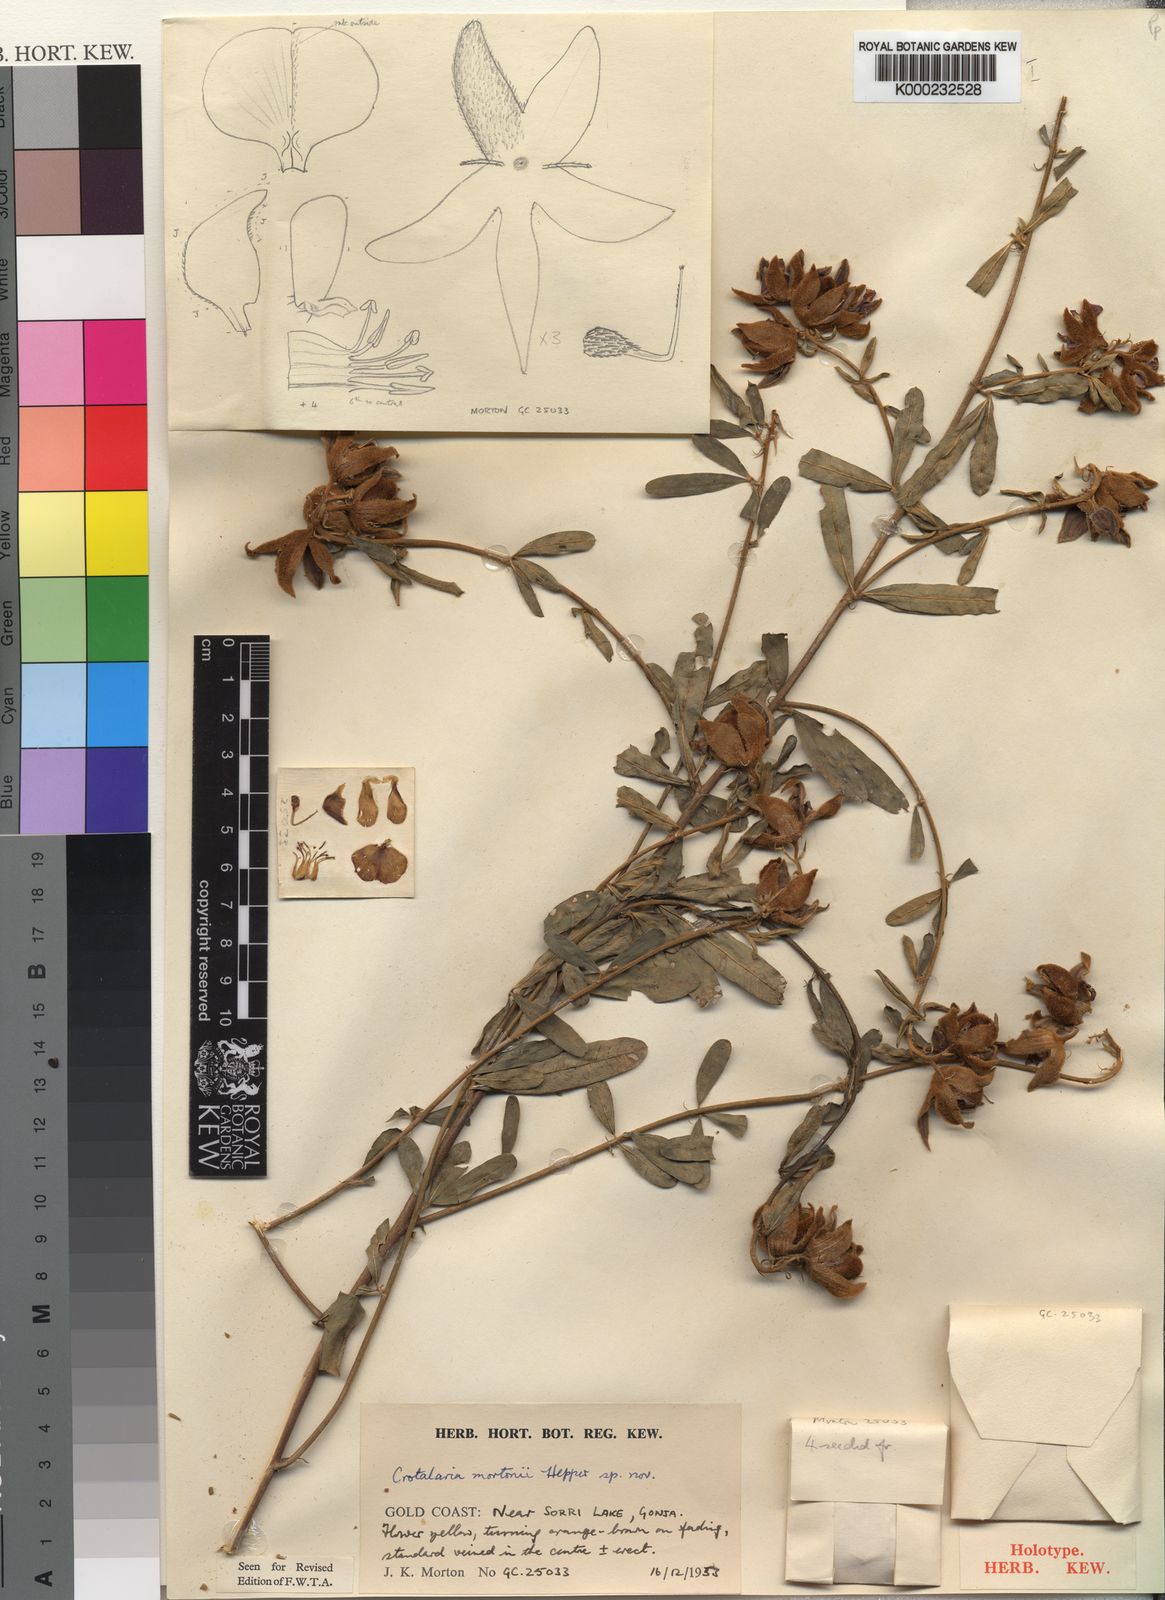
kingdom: Plantae
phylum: Tracheophyta
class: Magnoliopsida
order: Fabales
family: Fabaceae
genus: Crotalaria
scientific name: Crotalaria mortonii
